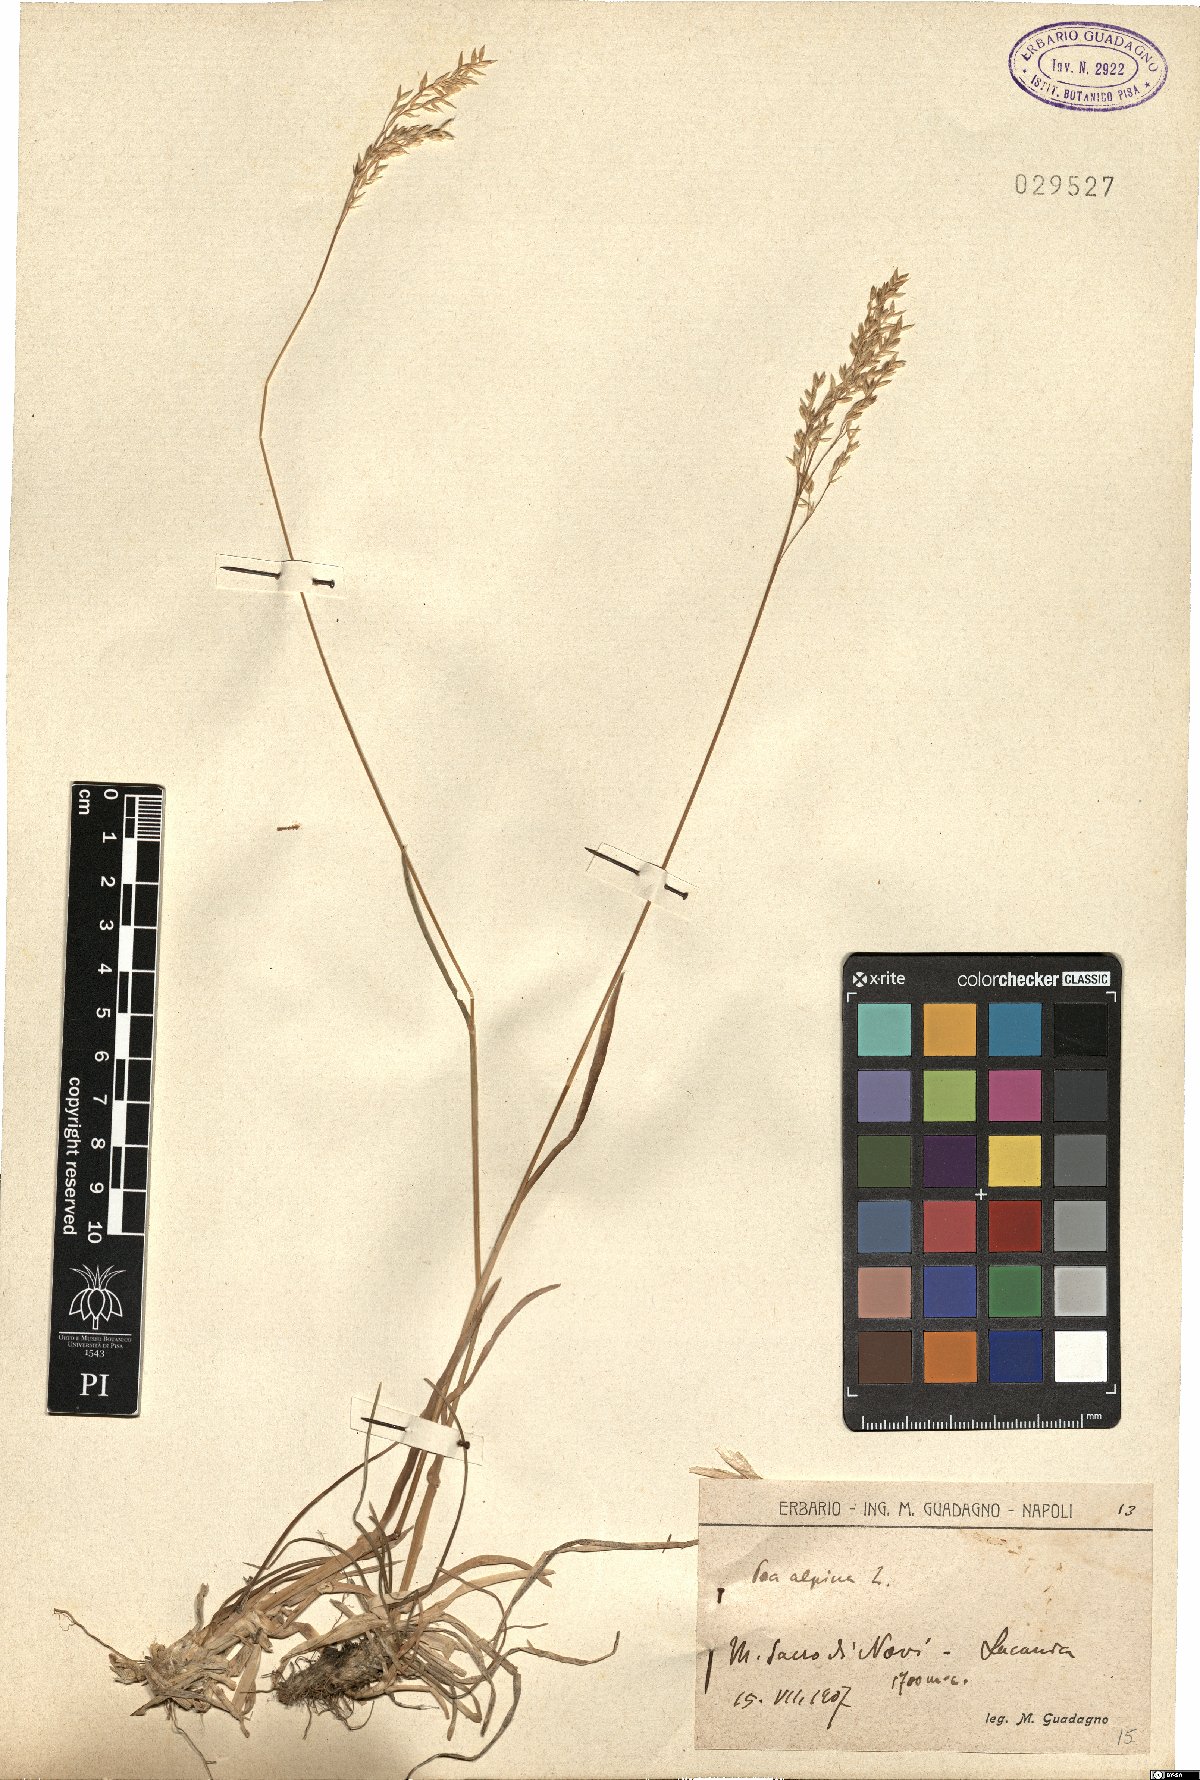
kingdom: Plantae
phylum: Tracheophyta
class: Liliopsida
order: Poales
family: Poaceae
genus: Poa
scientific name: Poa alpina
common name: Alpine bluegrass
